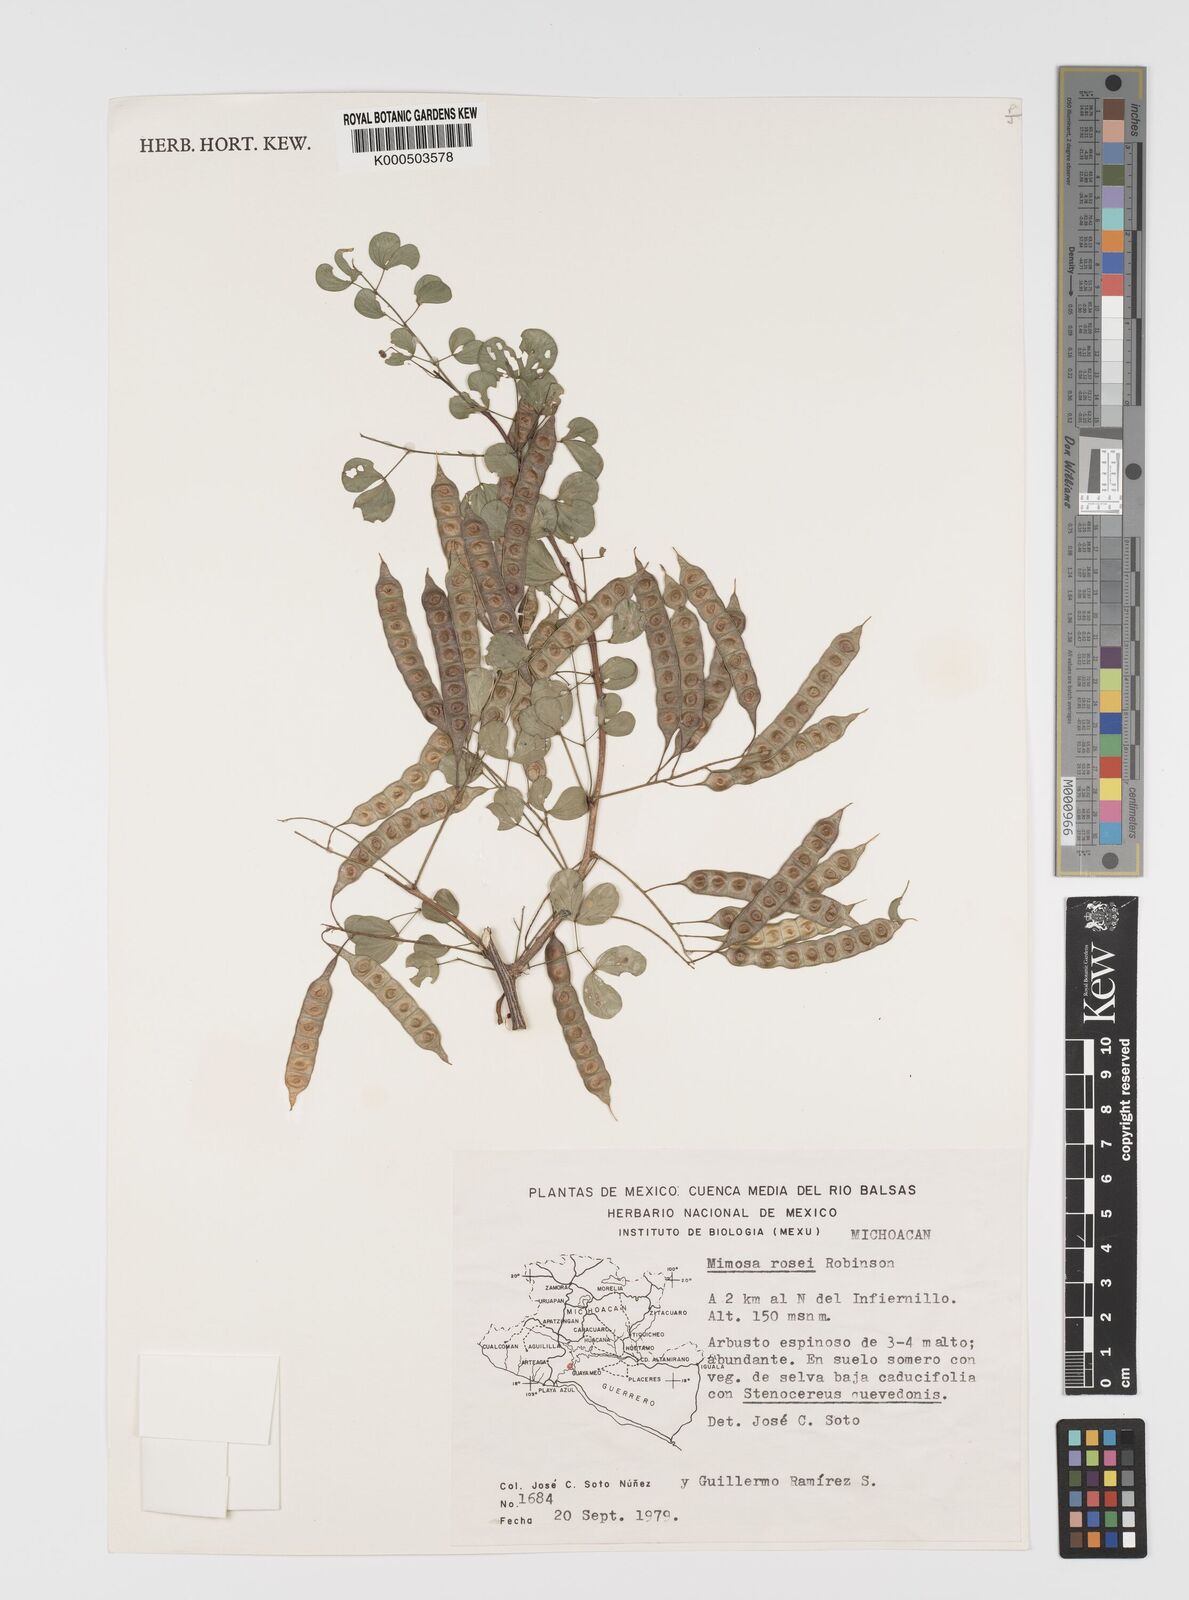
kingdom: Plantae
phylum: Tracheophyta
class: Magnoliopsida
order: Fabales
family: Fabaceae
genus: Mimosa
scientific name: Mimosa rosei
